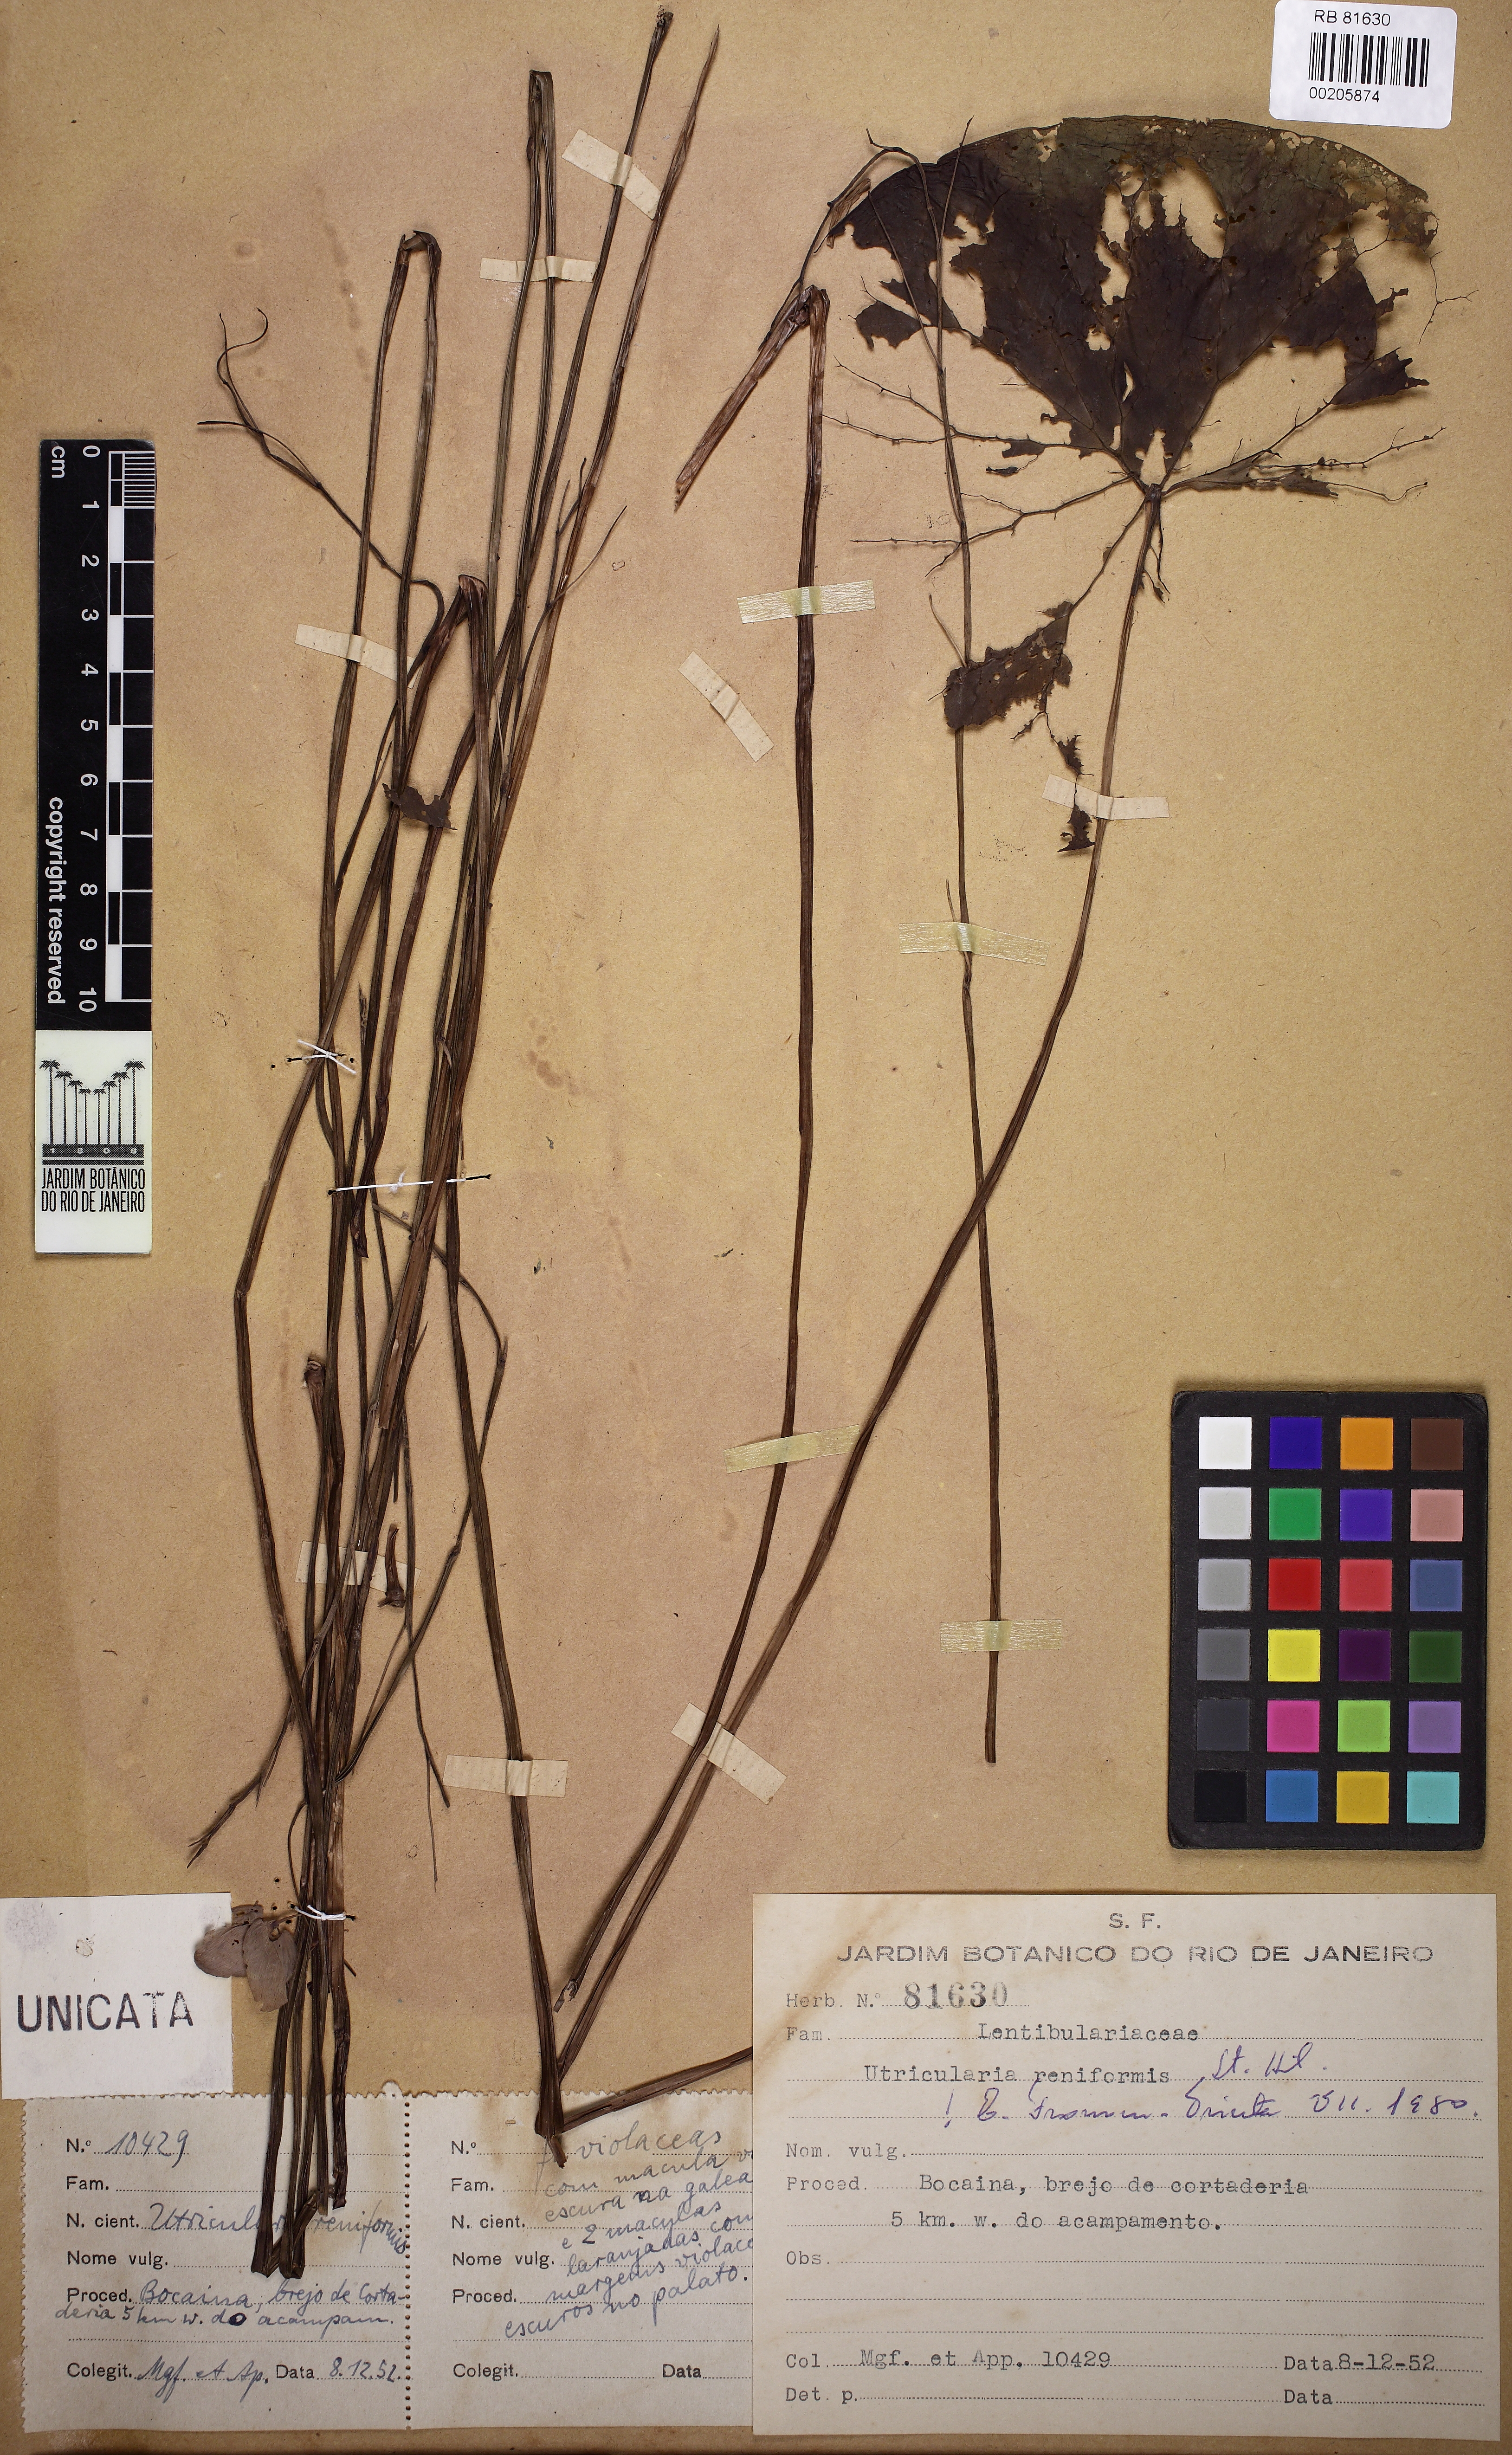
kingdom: Plantae
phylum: Tracheophyta
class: Magnoliopsida
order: Lamiales
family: Lentibulariaceae
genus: Utricularia
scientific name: Utricularia reniformis
